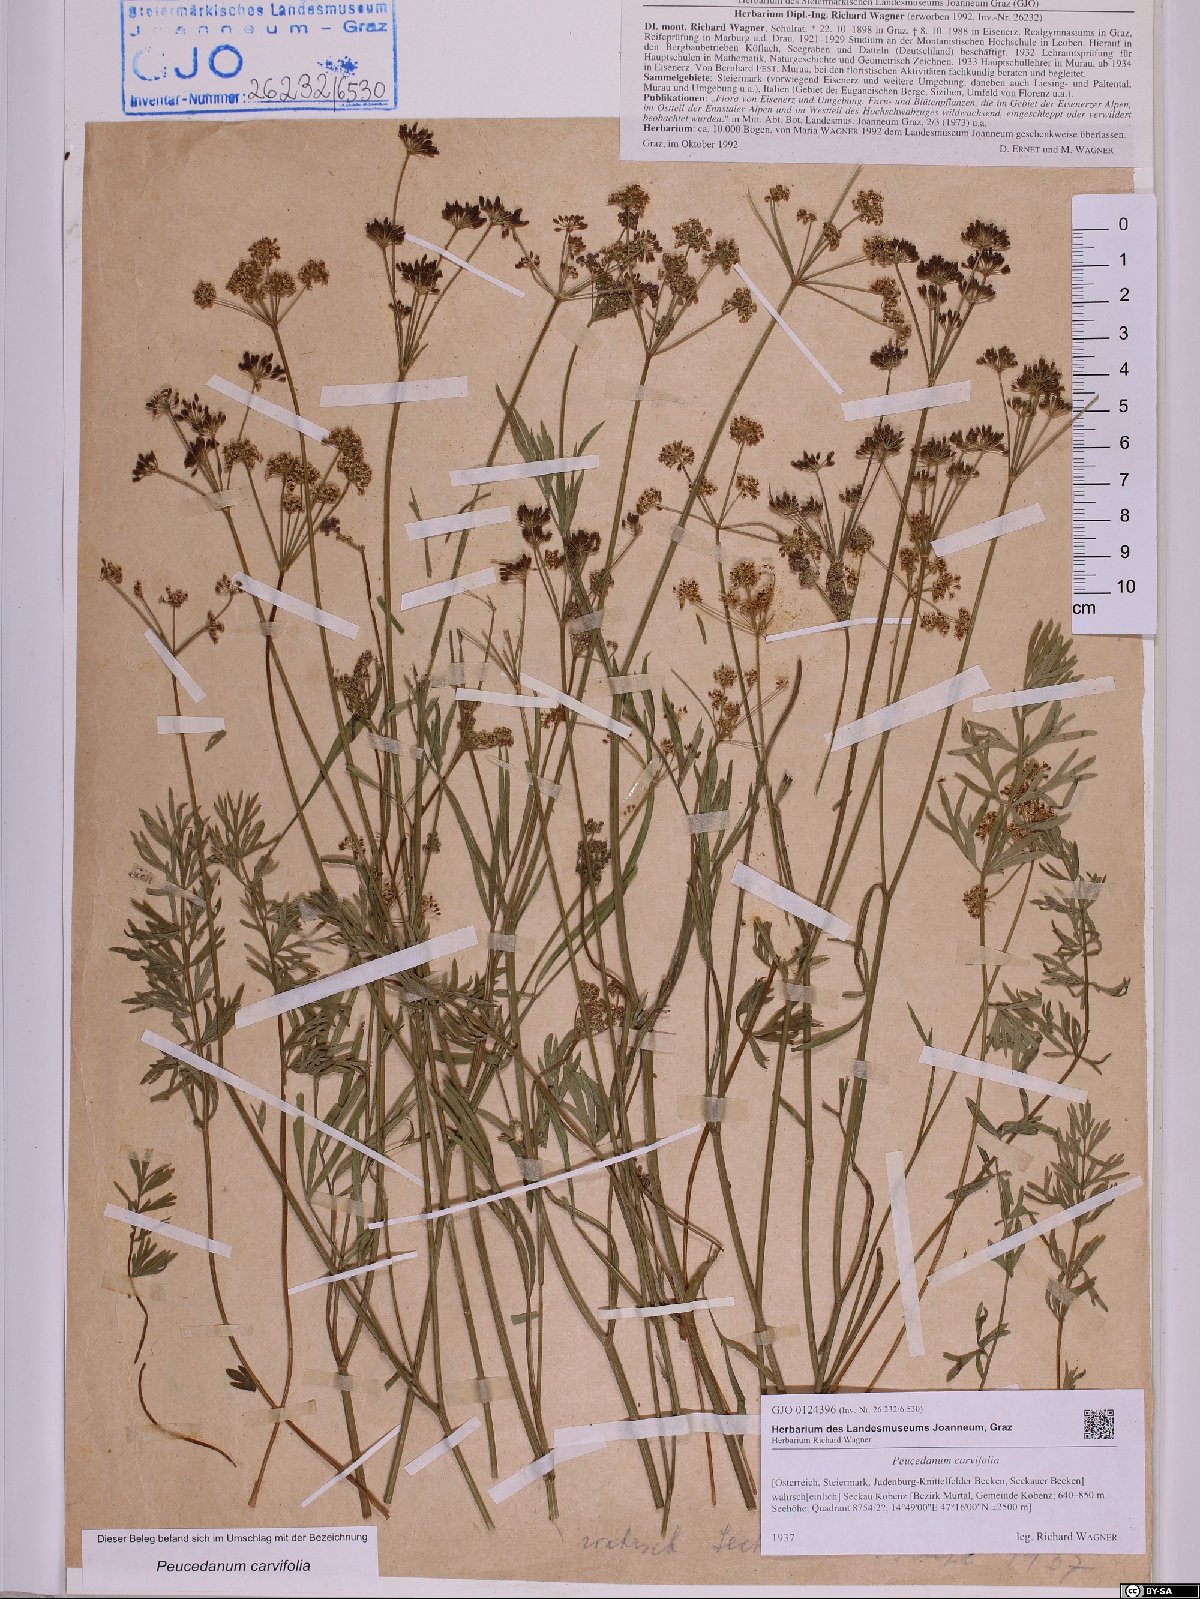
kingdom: Plantae
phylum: Tracheophyta
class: Magnoliopsida
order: Apiales
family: Apiaceae
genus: Dichoropetalum
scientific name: Dichoropetalum carvifolia
